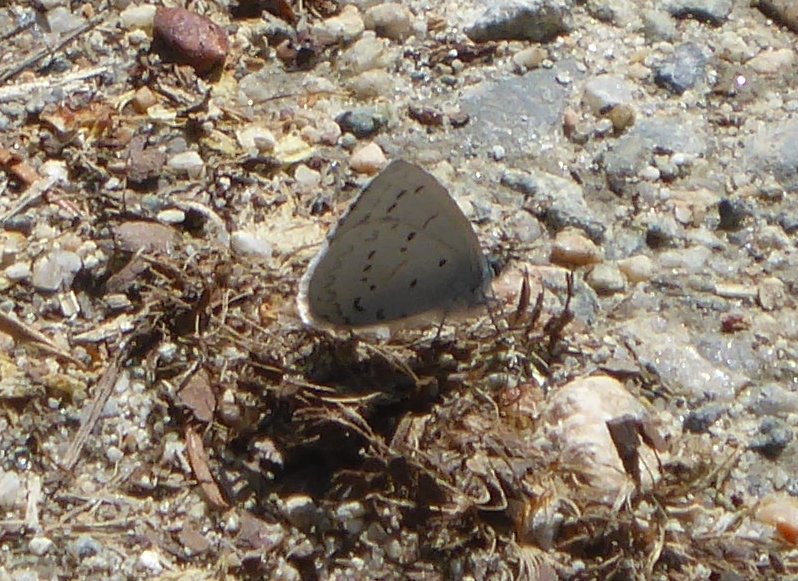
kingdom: Animalia
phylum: Arthropoda
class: Insecta
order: Lepidoptera
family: Lycaenidae
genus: Celastrina
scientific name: Celastrina ladon
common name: Echo Azure
